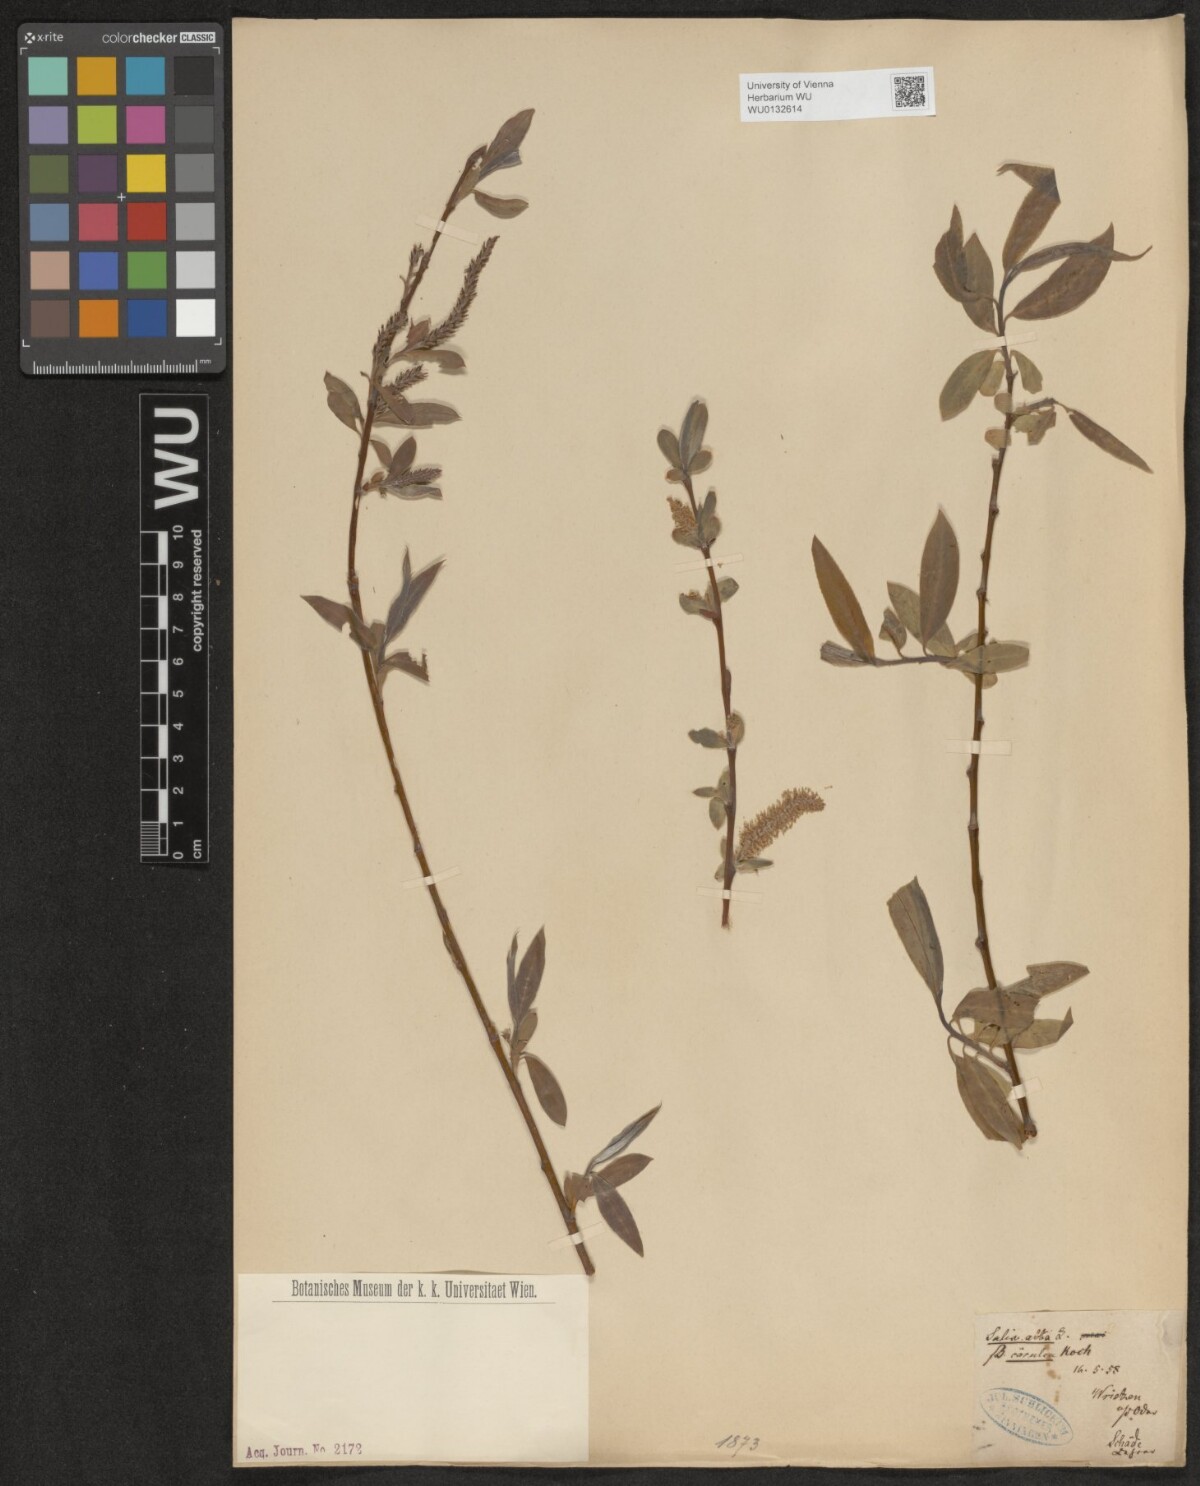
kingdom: Plantae
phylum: Tracheophyta
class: Magnoliopsida
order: Malpighiales
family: Salicaceae
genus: Salix
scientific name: Salix alba
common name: White willow
